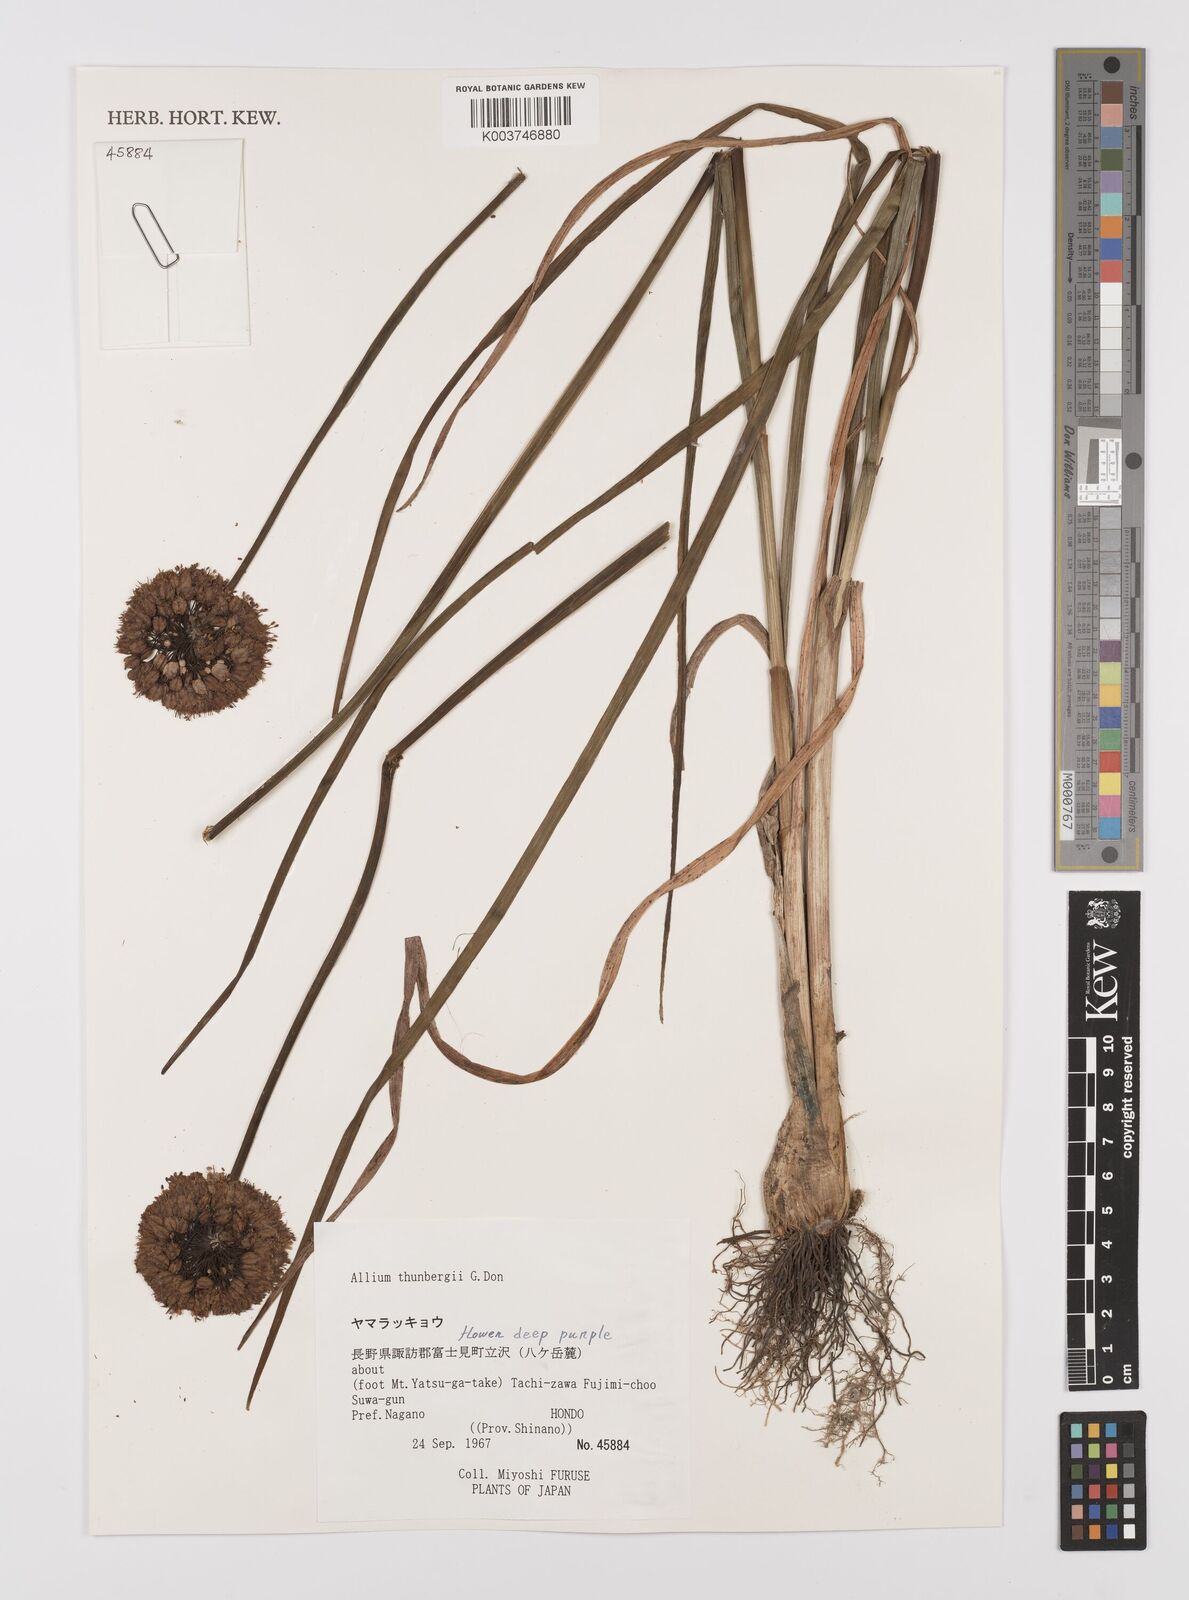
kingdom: Plantae
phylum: Tracheophyta
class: Liliopsida
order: Asparagales
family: Amaryllidaceae
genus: Allium
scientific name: Allium thunbergii
